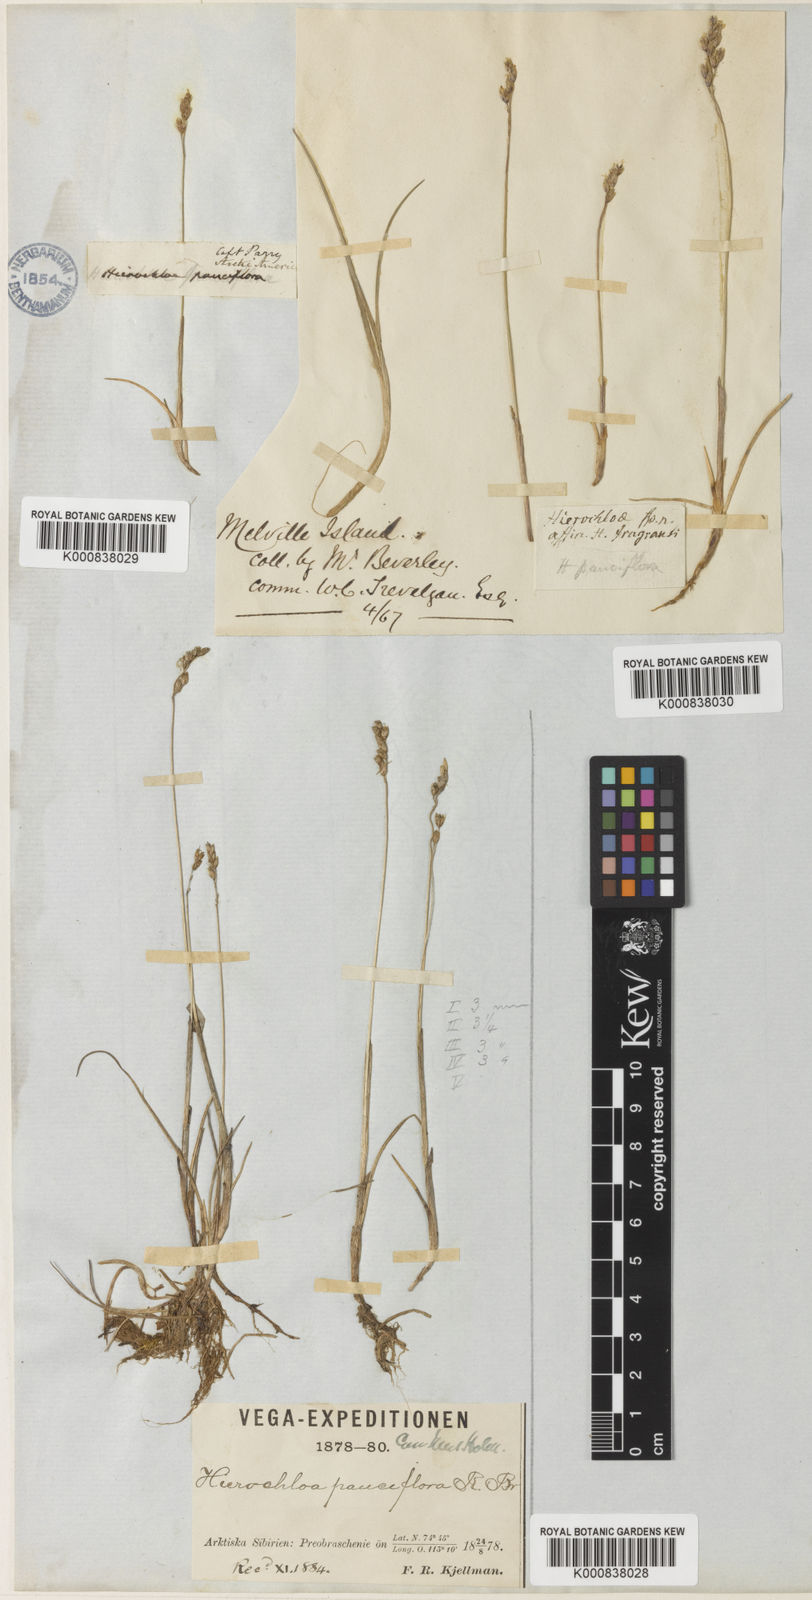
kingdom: Plantae
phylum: Tracheophyta
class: Liliopsida
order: Poales
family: Poaceae
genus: Anthoxanthum
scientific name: Anthoxanthum arcticum
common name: Arctic sweetgrass
